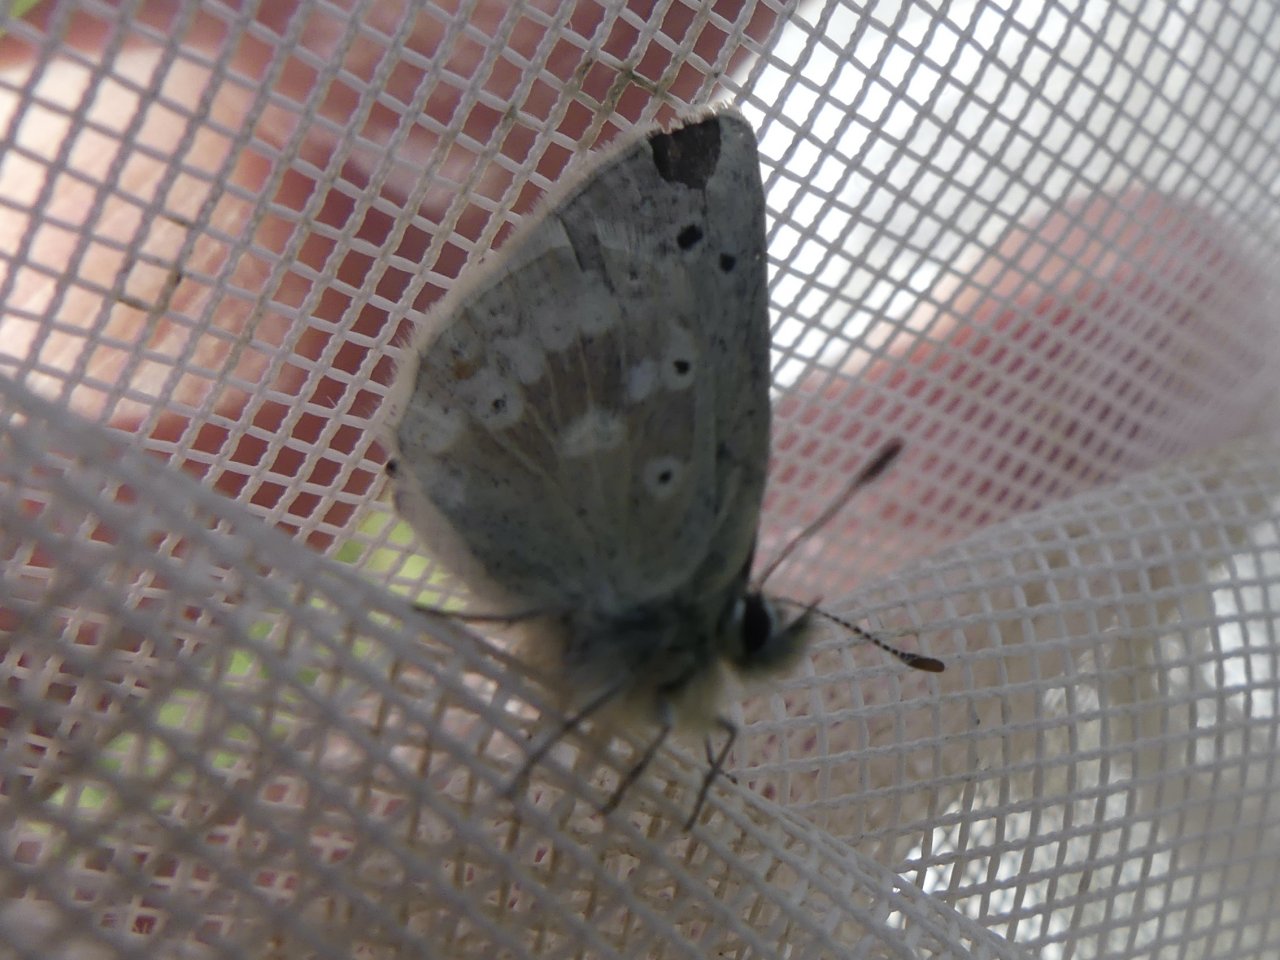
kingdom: Animalia
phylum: Arthropoda
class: Insecta
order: Lepidoptera
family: Lycaenidae
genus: Agriades
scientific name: Agriades glandon
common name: Arctic Blue
